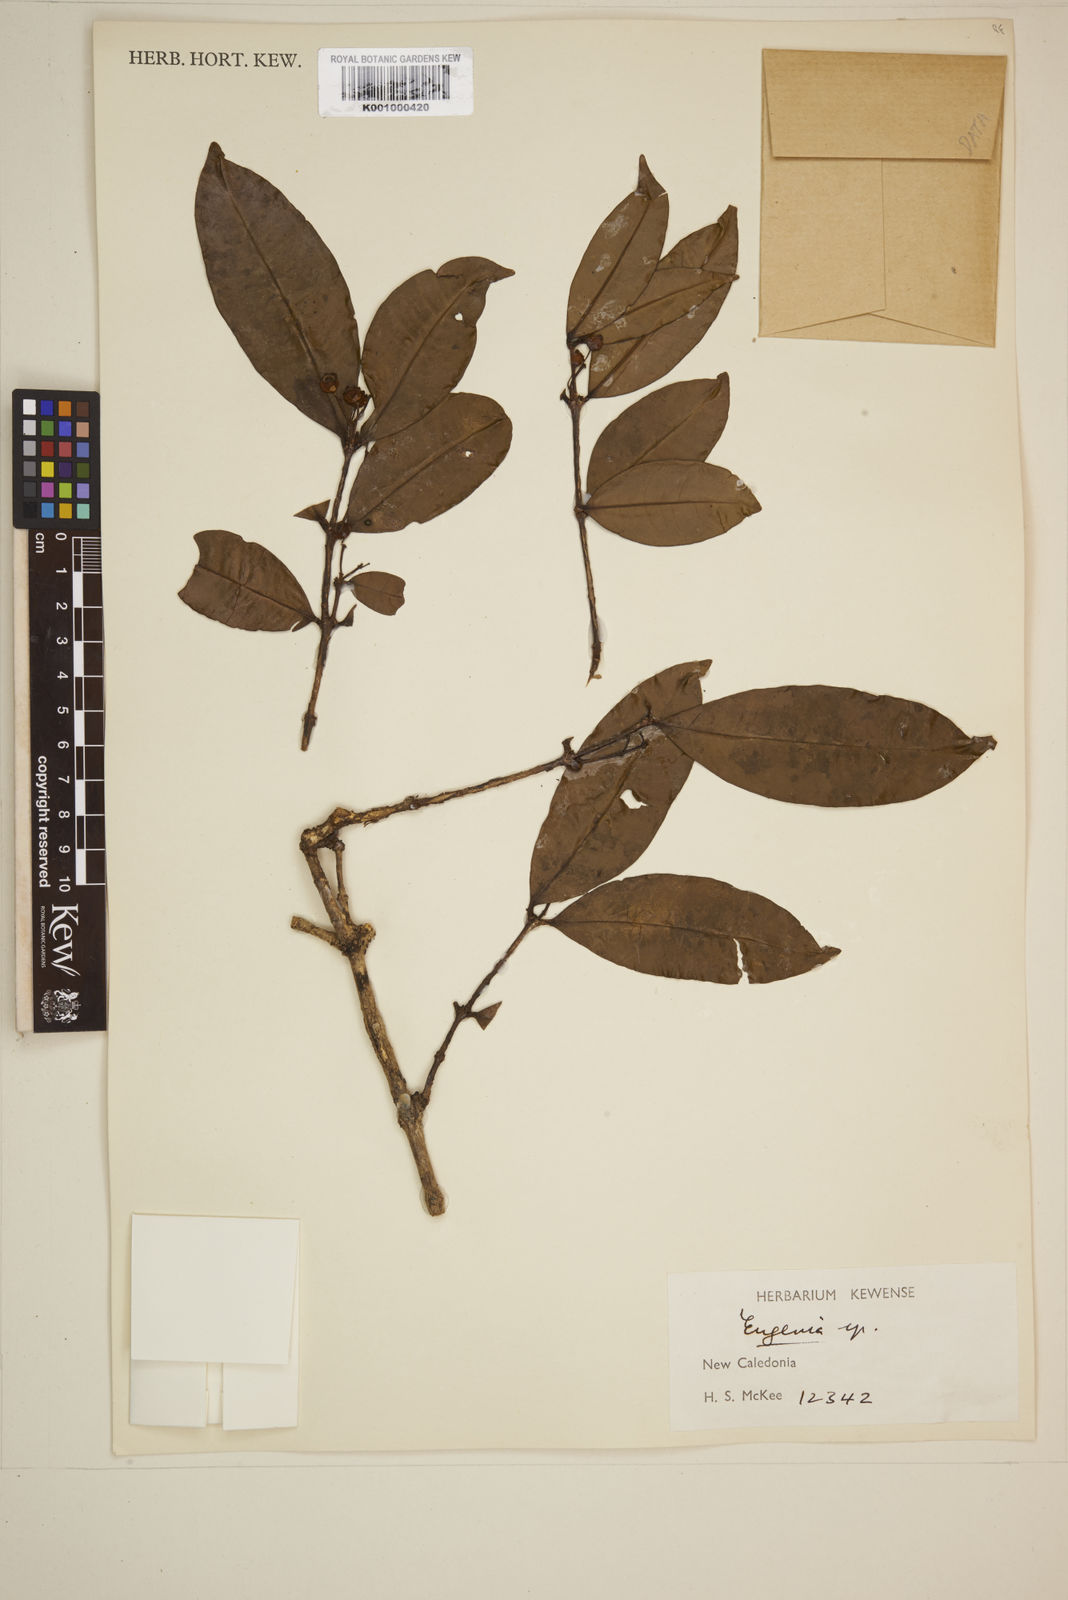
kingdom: Plantae
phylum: Tracheophyta
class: Magnoliopsida
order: Myrtales
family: Myrtaceae
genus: Eugenia
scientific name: Eugenia
